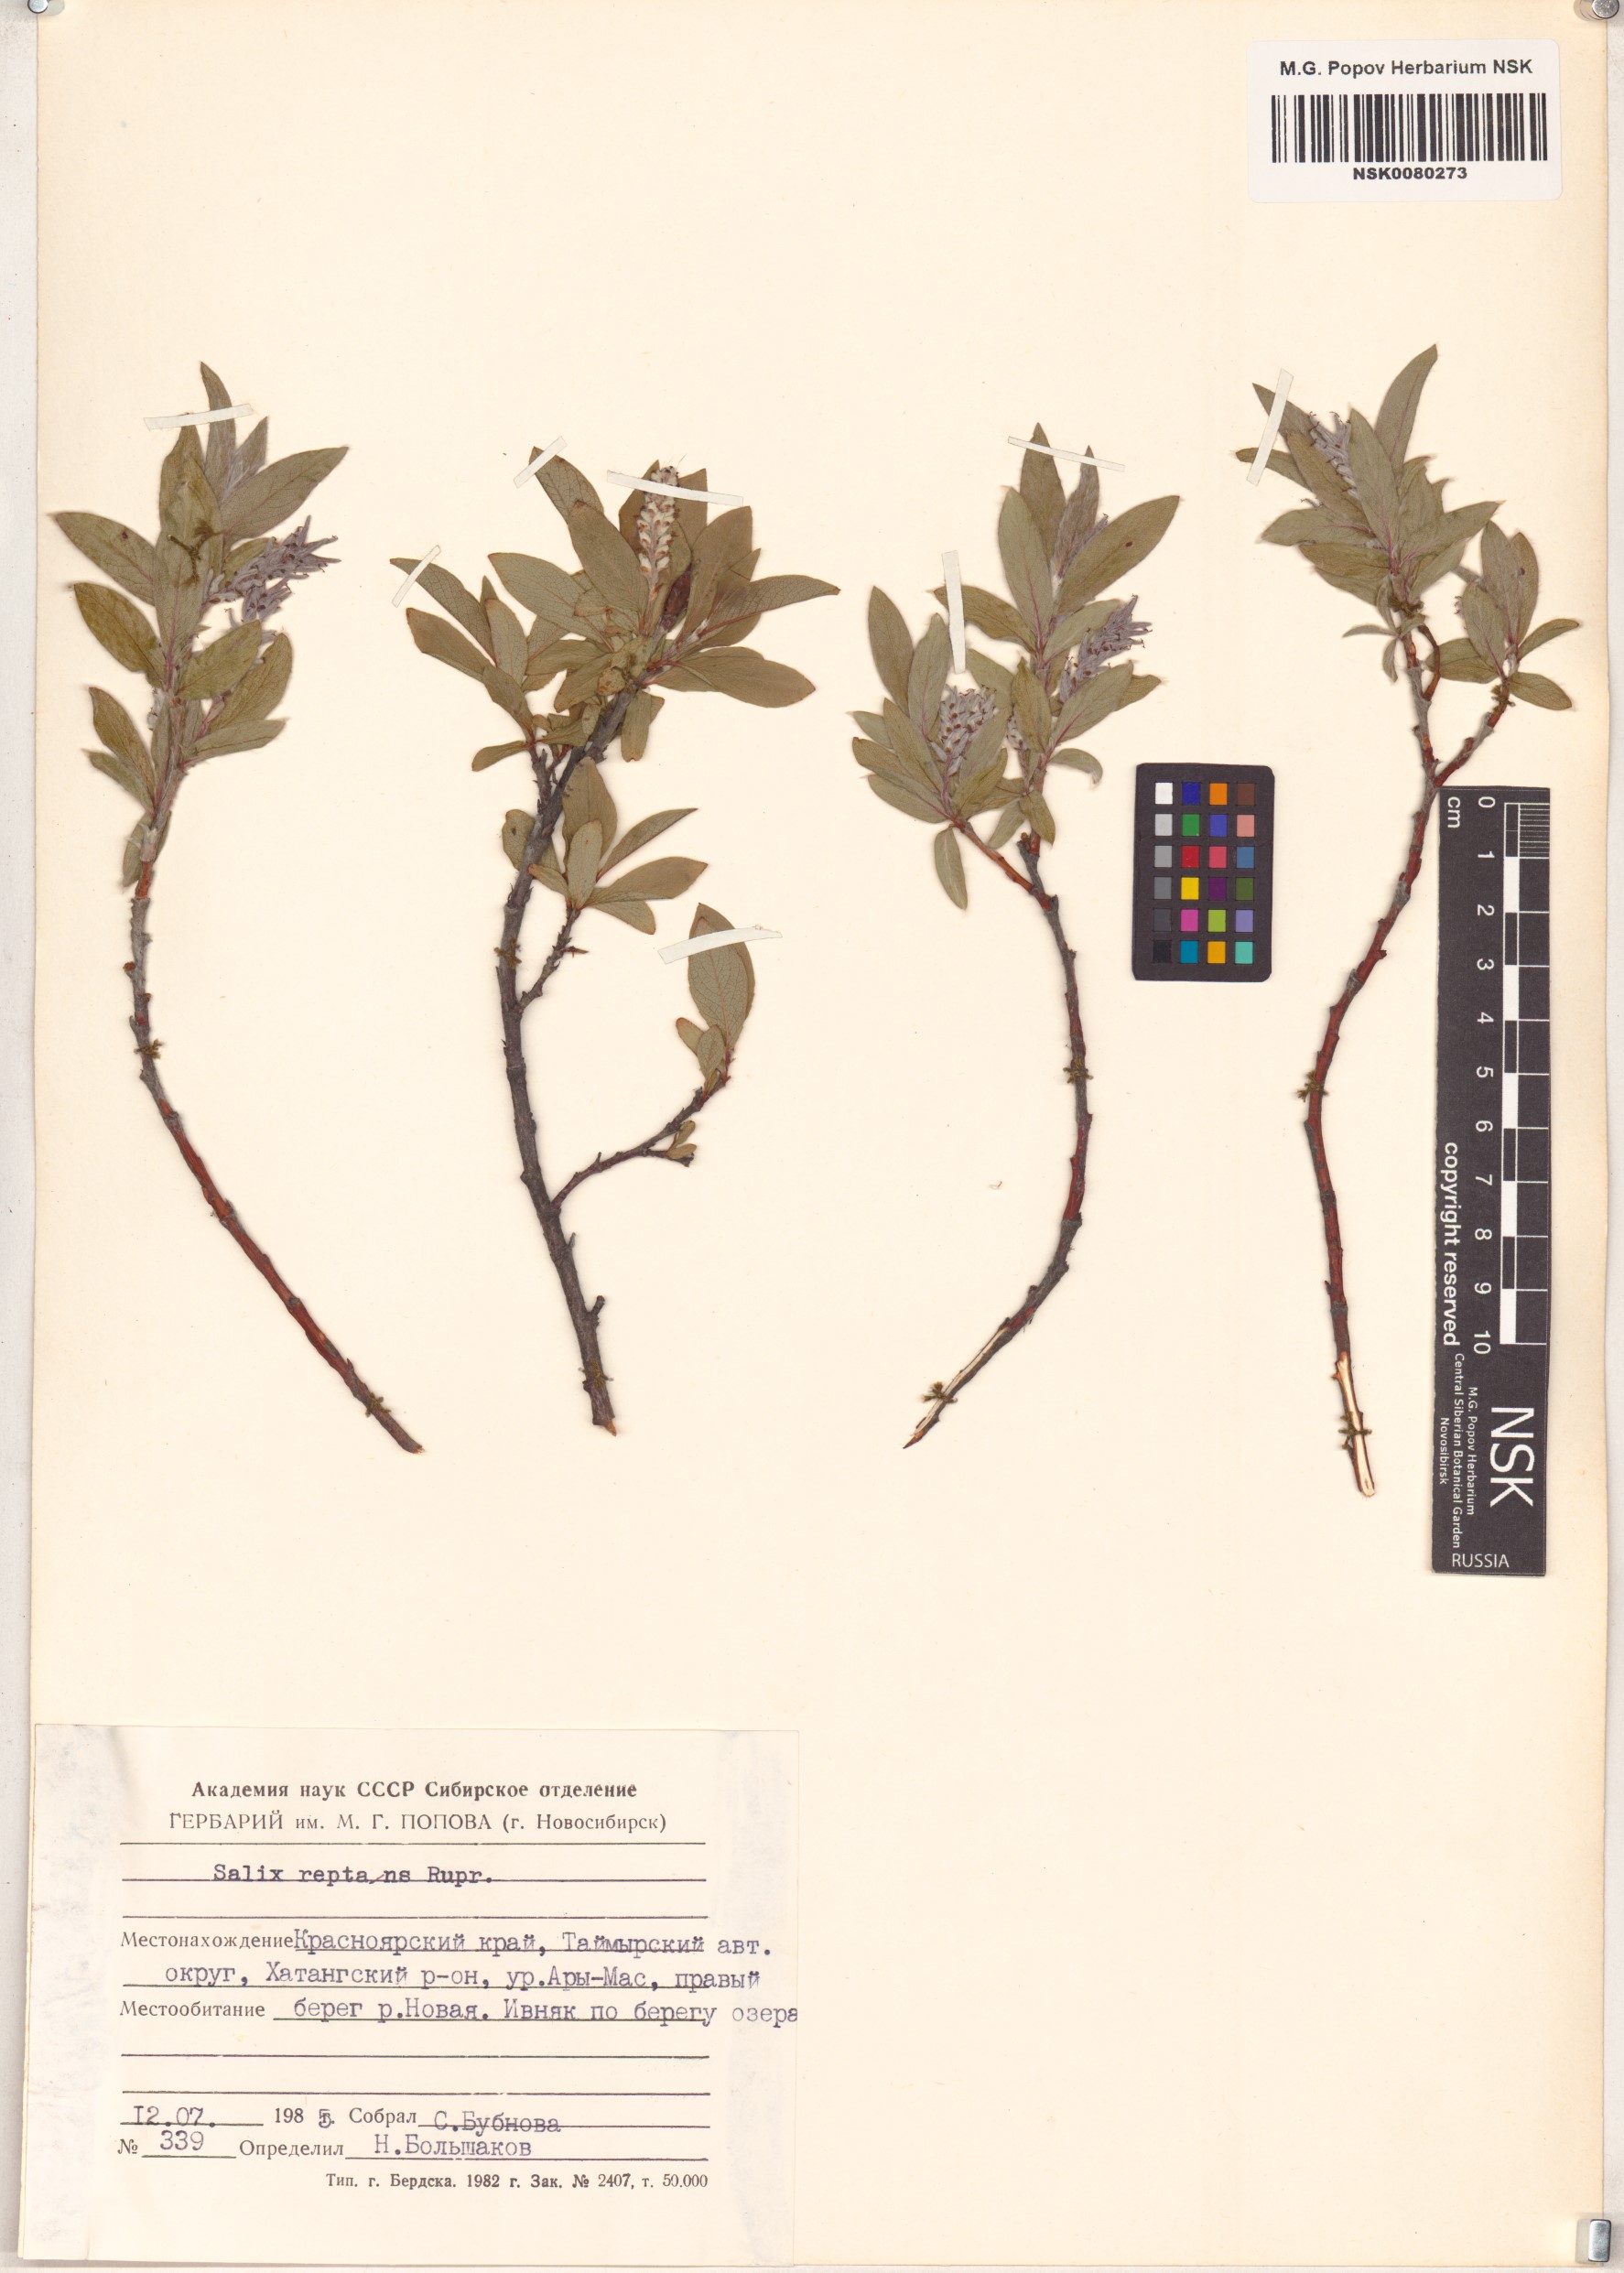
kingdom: Plantae
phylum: Tracheophyta
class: Magnoliopsida
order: Malpighiales
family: Salicaceae
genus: Salix
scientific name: Salix reptans
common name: Arctic creeping willow
